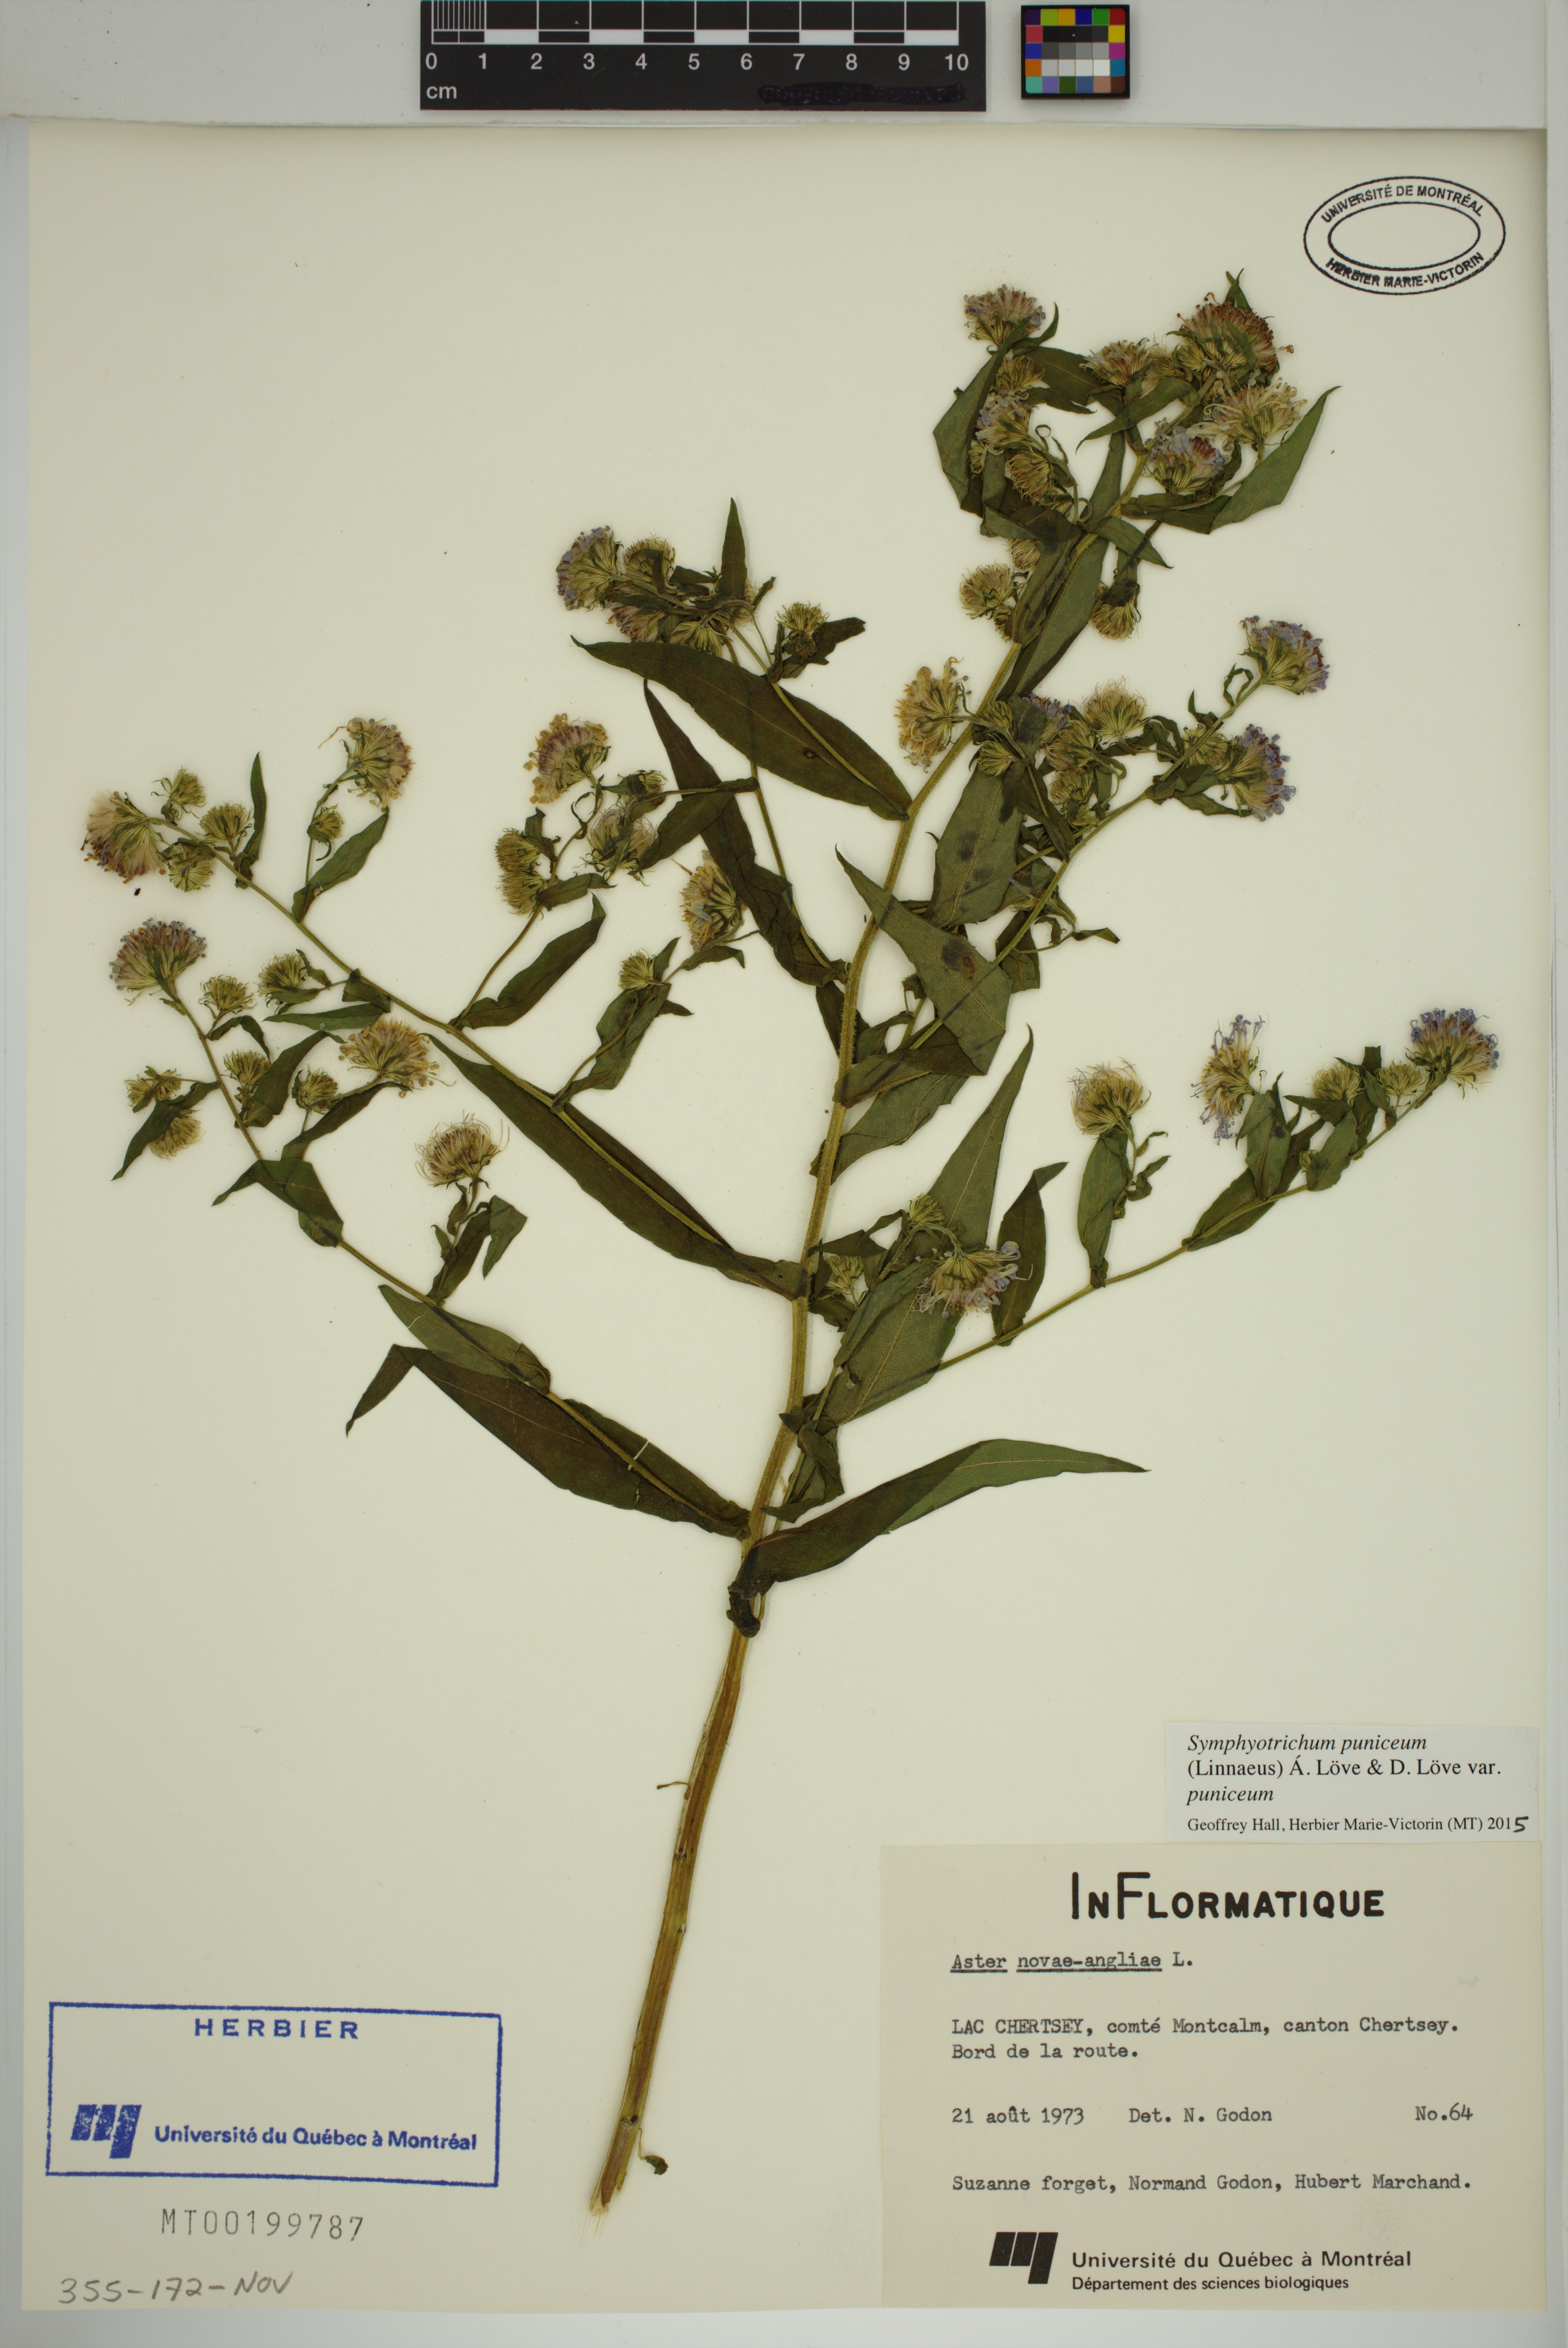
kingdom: Plantae
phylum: Tracheophyta
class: Magnoliopsida
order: Asterales
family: Asteraceae
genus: Symphyotrichum
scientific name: Symphyotrichum puniceum
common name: Bog aster
